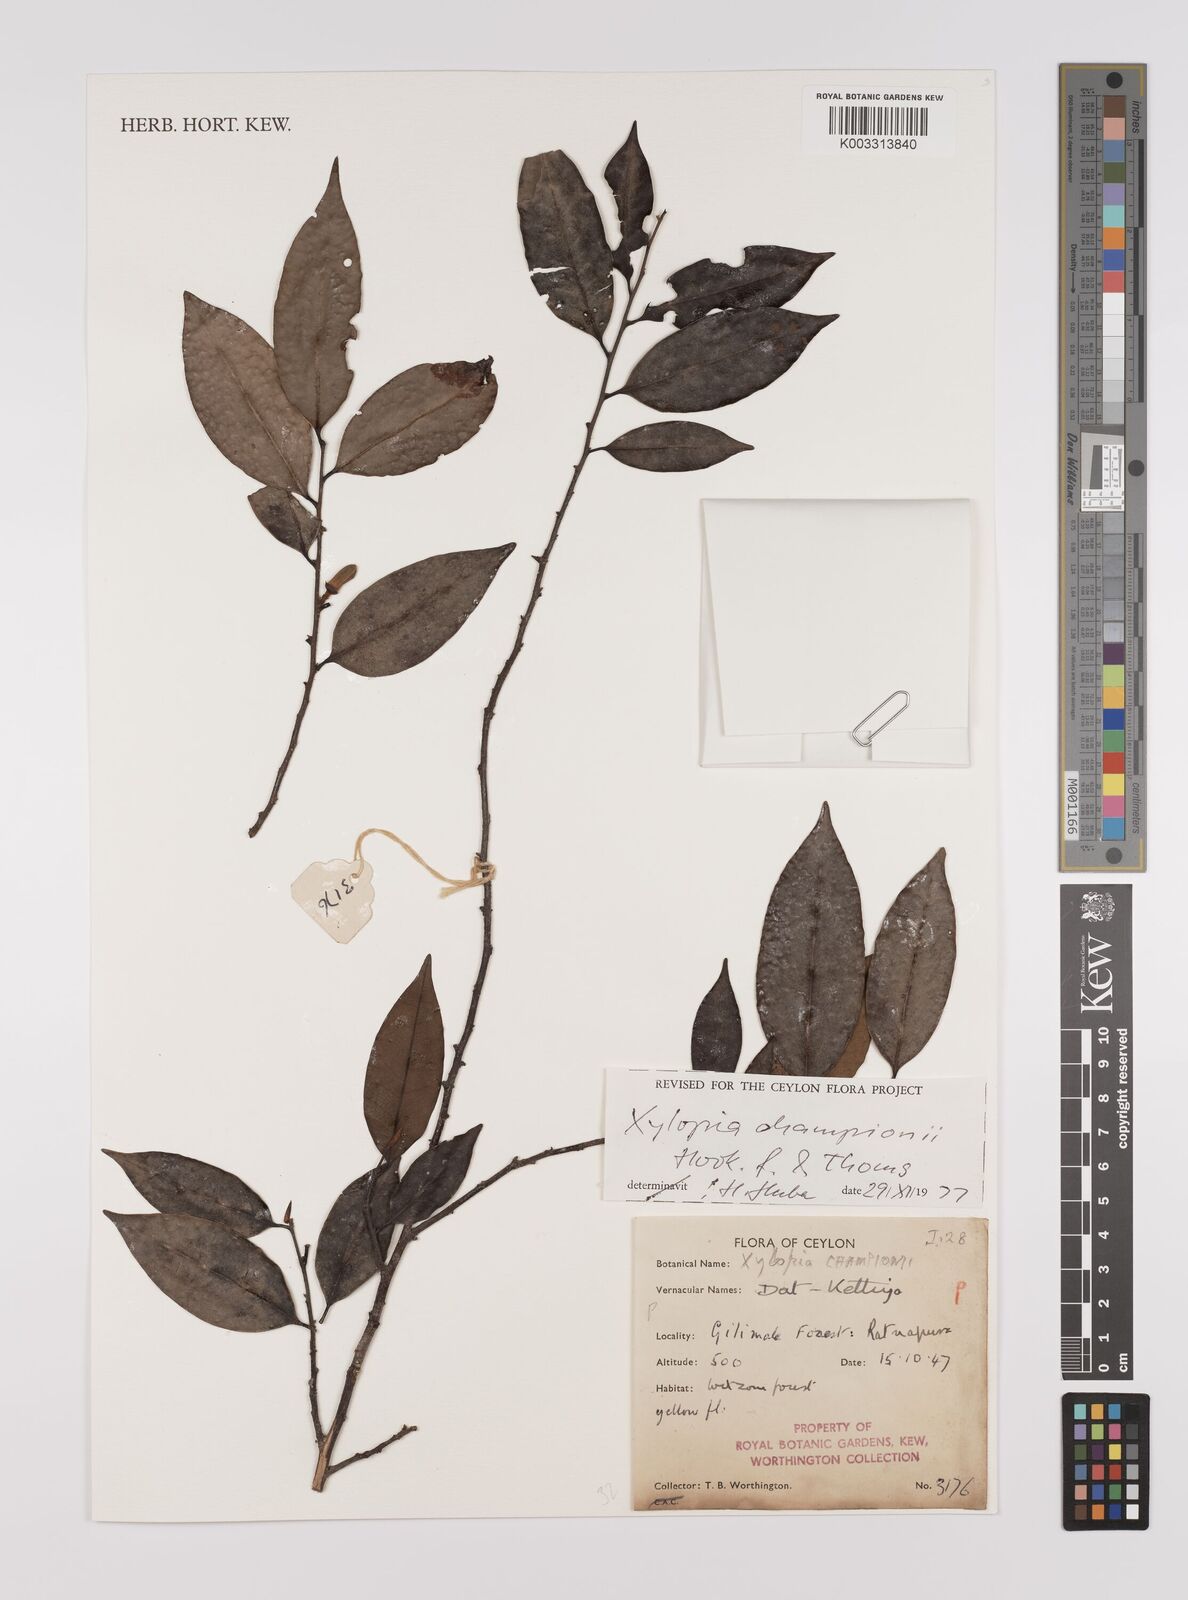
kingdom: Plantae
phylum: Tracheophyta
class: Magnoliopsida
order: Magnoliales
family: Annonaceae
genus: Xylopia
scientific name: Xylopia championii
